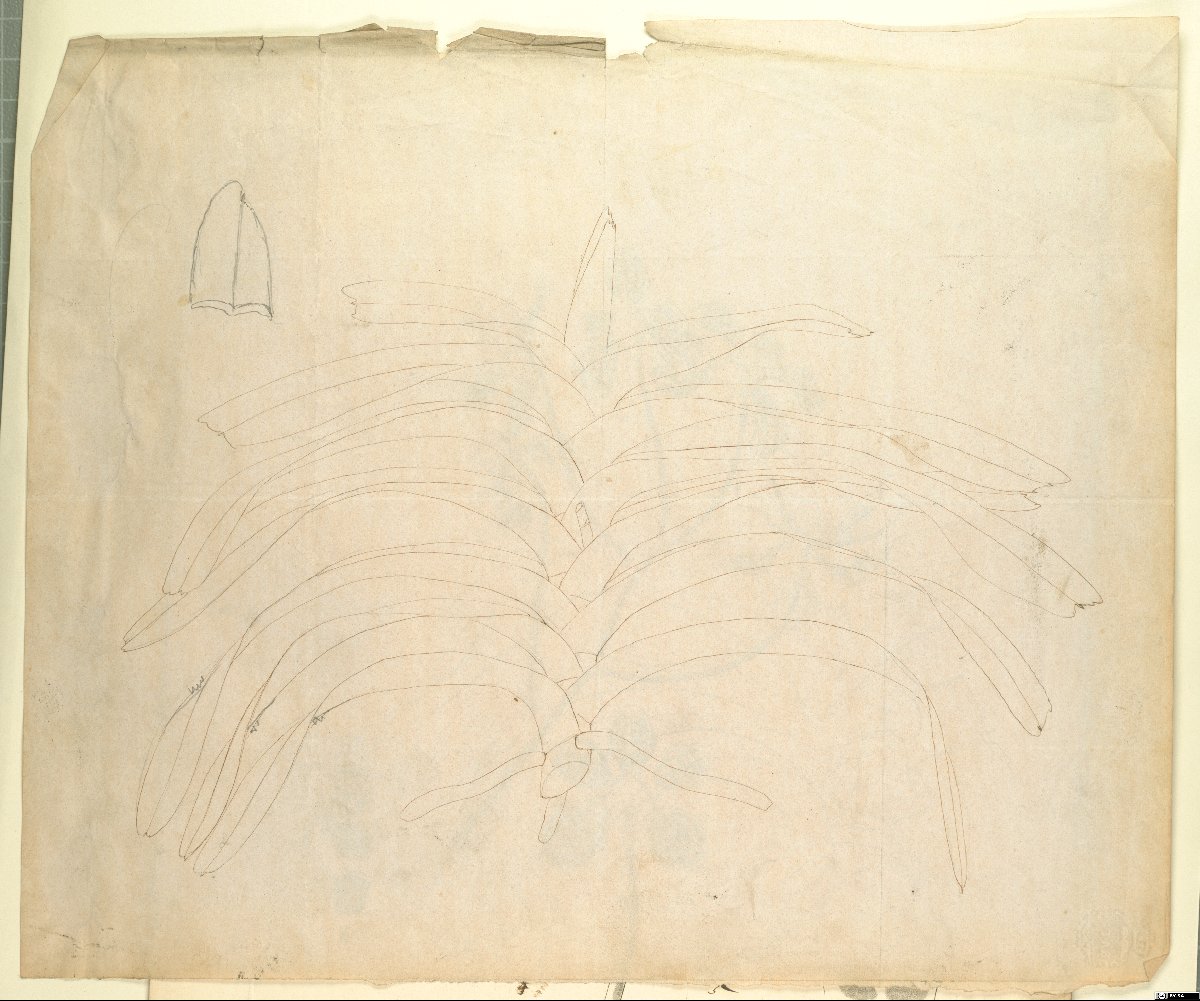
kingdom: Plantae
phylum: Tracheophyta
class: Liliopsida
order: Asparagales
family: Orchidaceae
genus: Vanda
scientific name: Vanda stangeana
